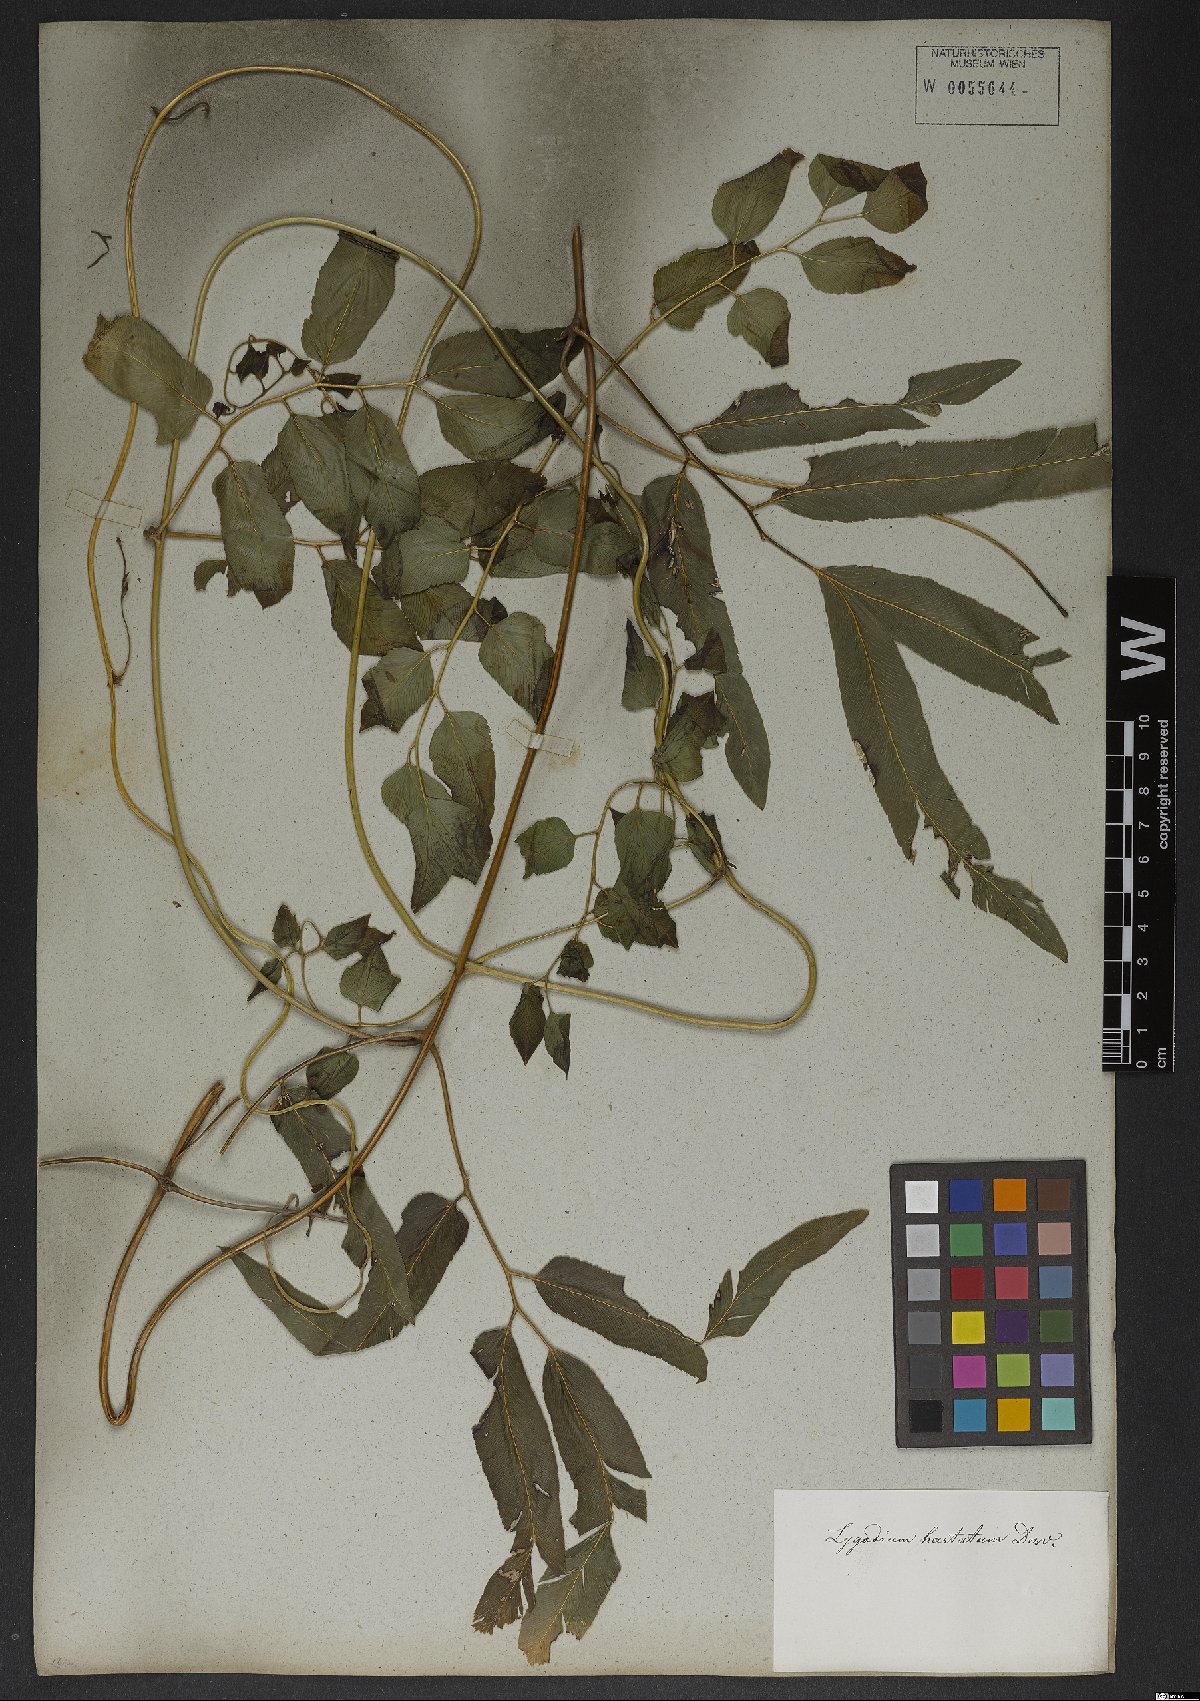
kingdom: Plantae
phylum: Tracheophyta
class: Polypodiopsida
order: Schizaeales
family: Lygodiaceae
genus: Lygodium
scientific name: Lygodium volubile
